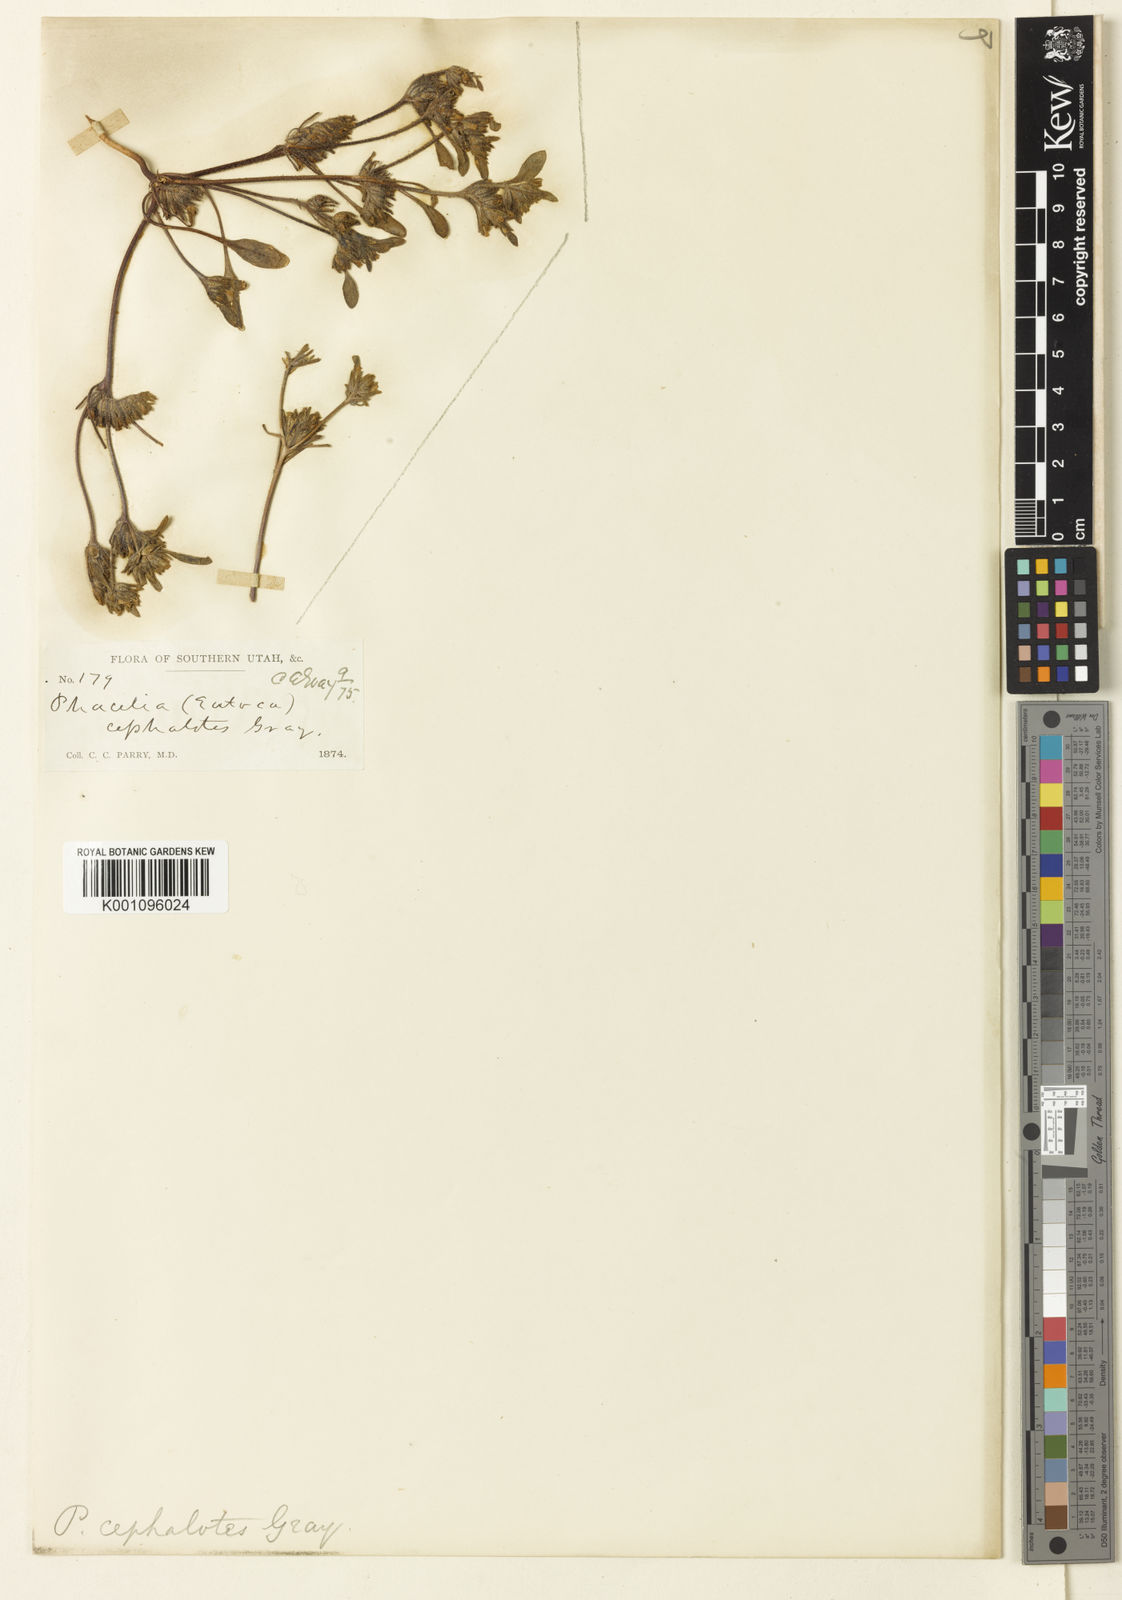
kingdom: Plantae
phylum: Tracheophyta
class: Magnoliopsida
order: Boraginales
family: Hydrophyllaceae
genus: Phacelia
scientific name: Phacelia cephalotes
